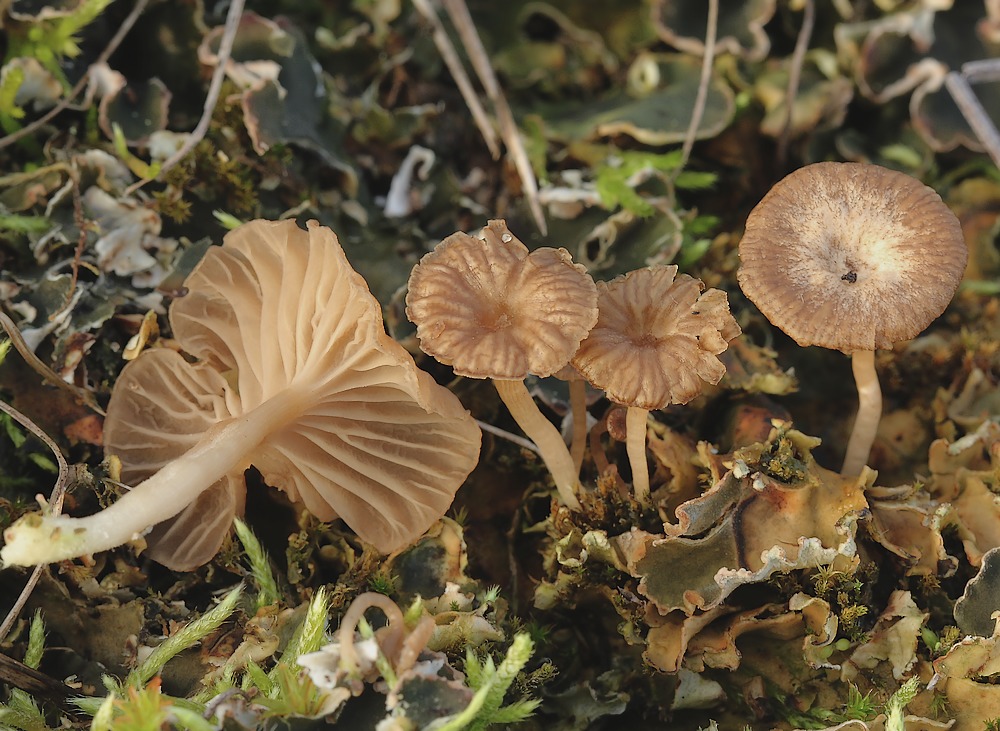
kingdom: Fungi
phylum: Basidiomycota
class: Agaricomycetes
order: Agaricales
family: Hygrophoraceae
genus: Arrhenia
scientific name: Arrhenia peltigerina
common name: skjoldlav-fontænehat
